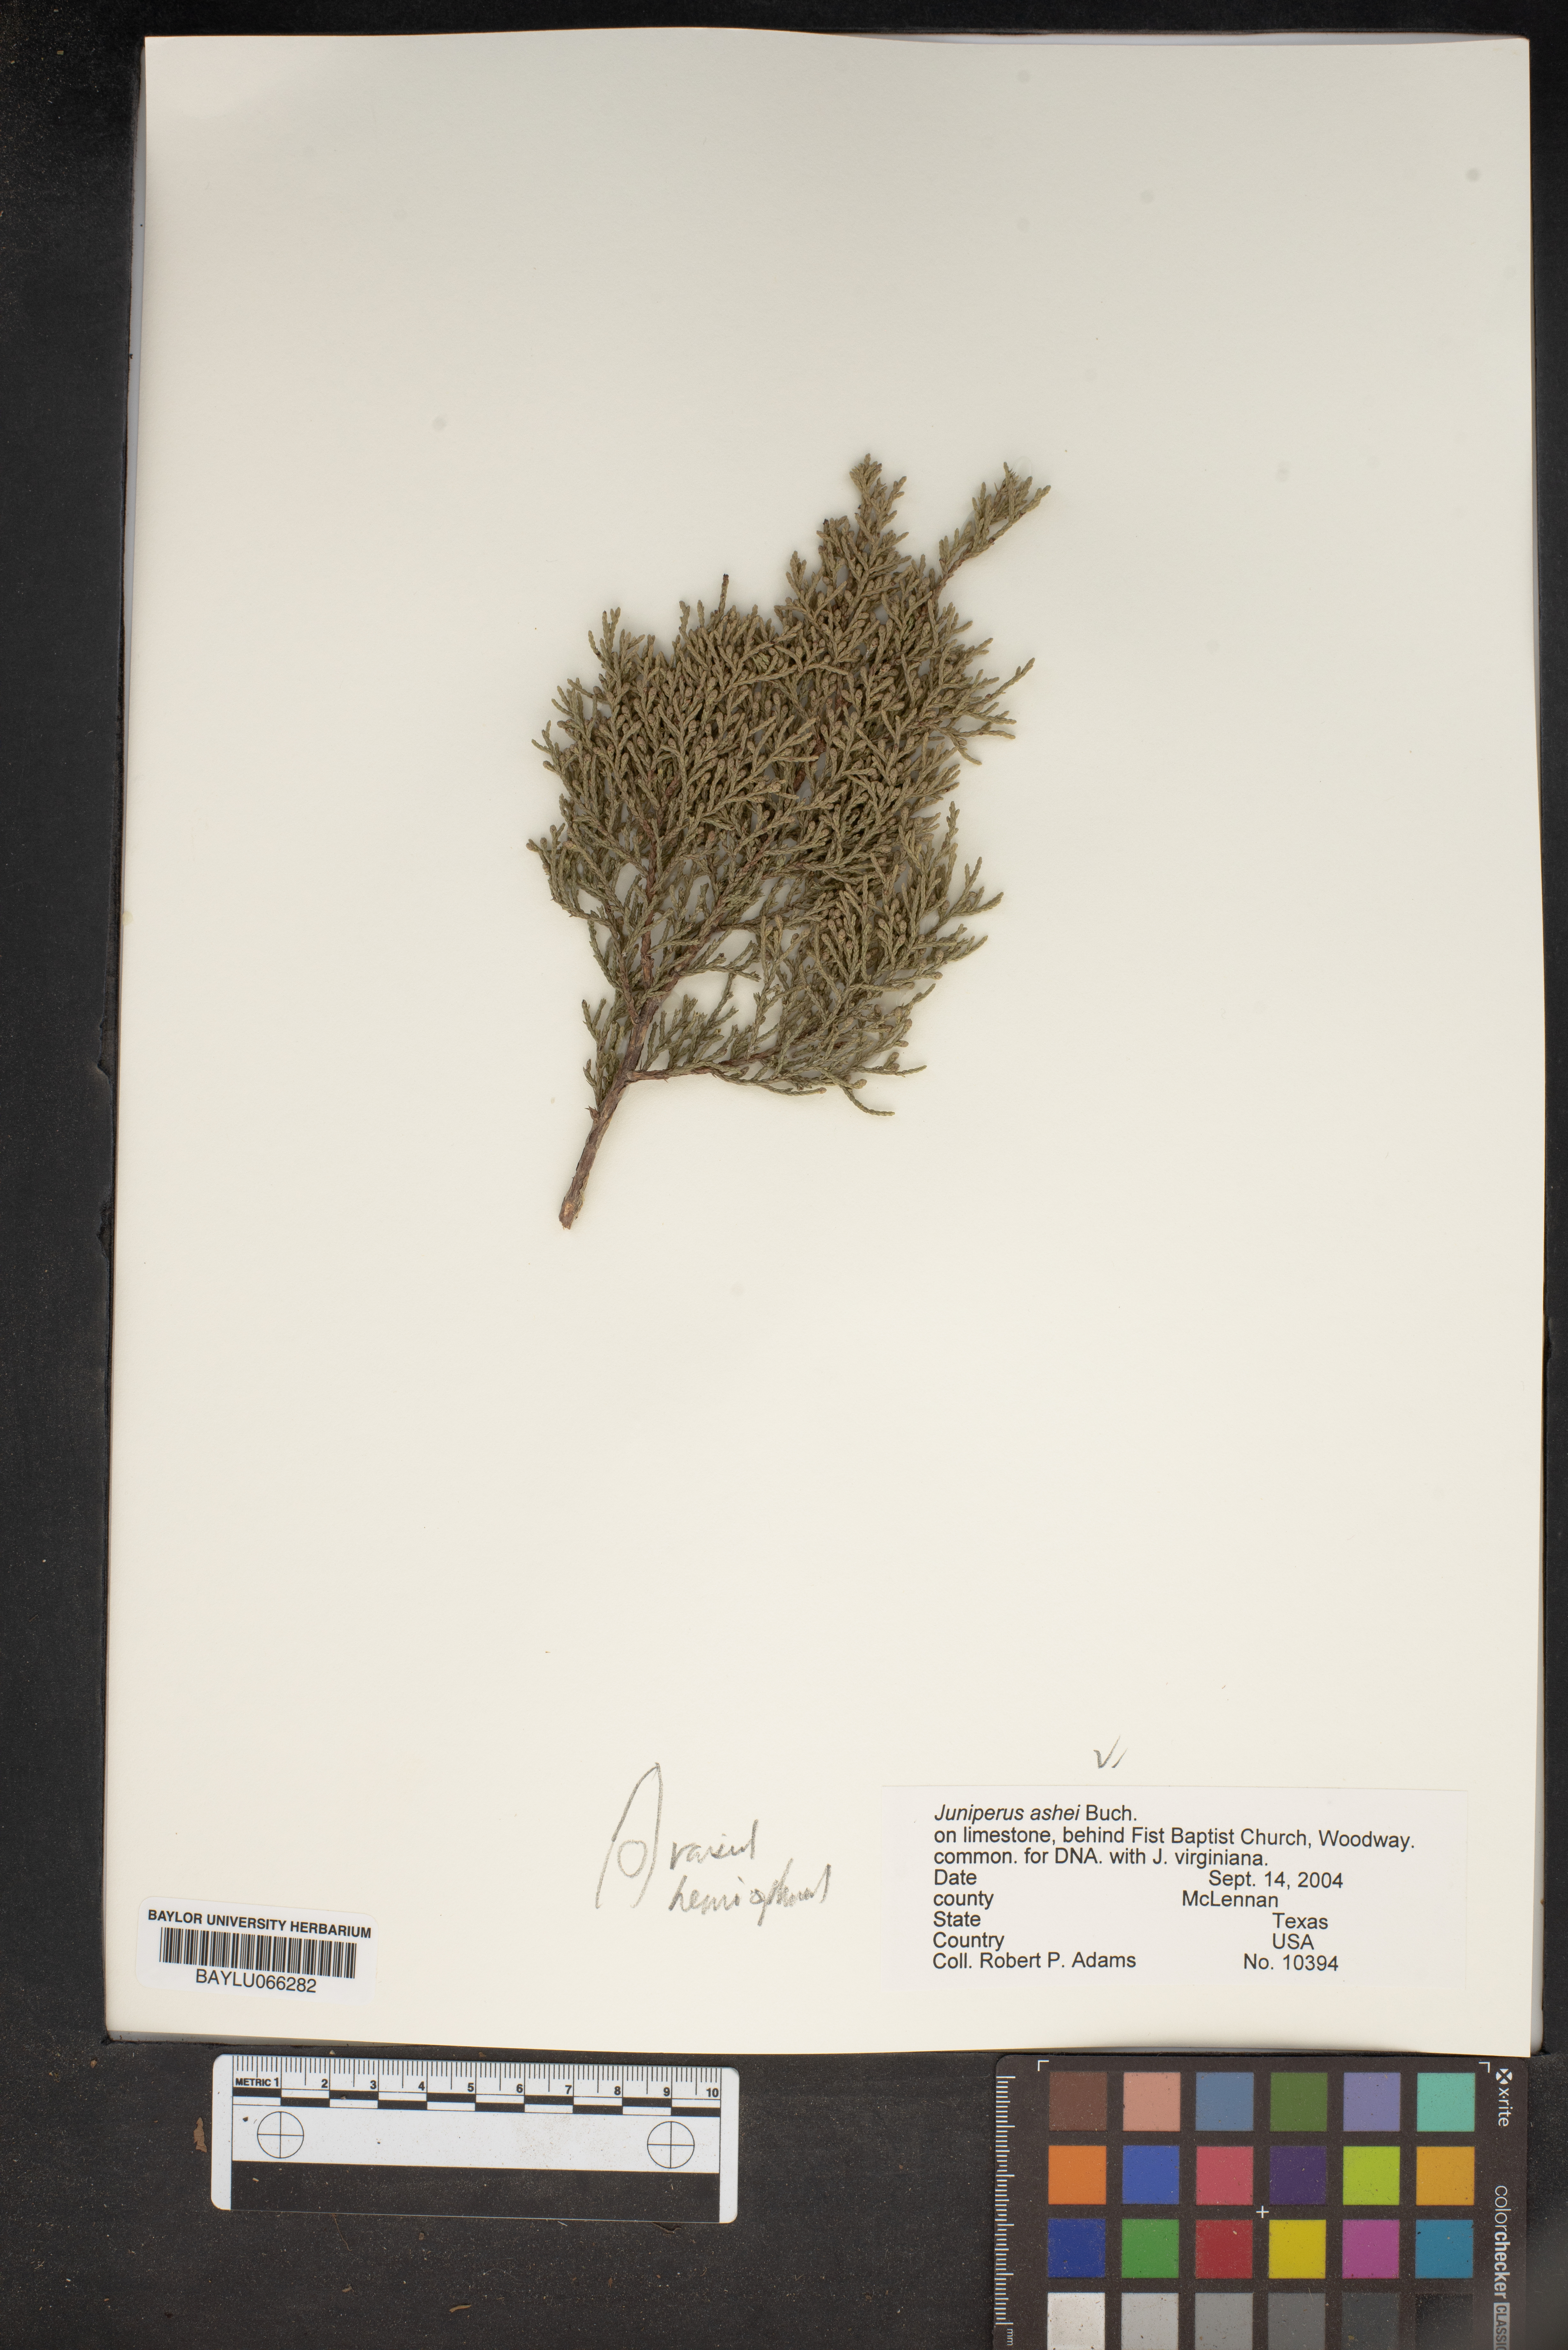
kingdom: Plantae
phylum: Tracheophyta
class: Pinopsida
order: Pinales
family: Cupressaceae
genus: Juniperus
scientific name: Juniperus ashei
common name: Mexican juniper
